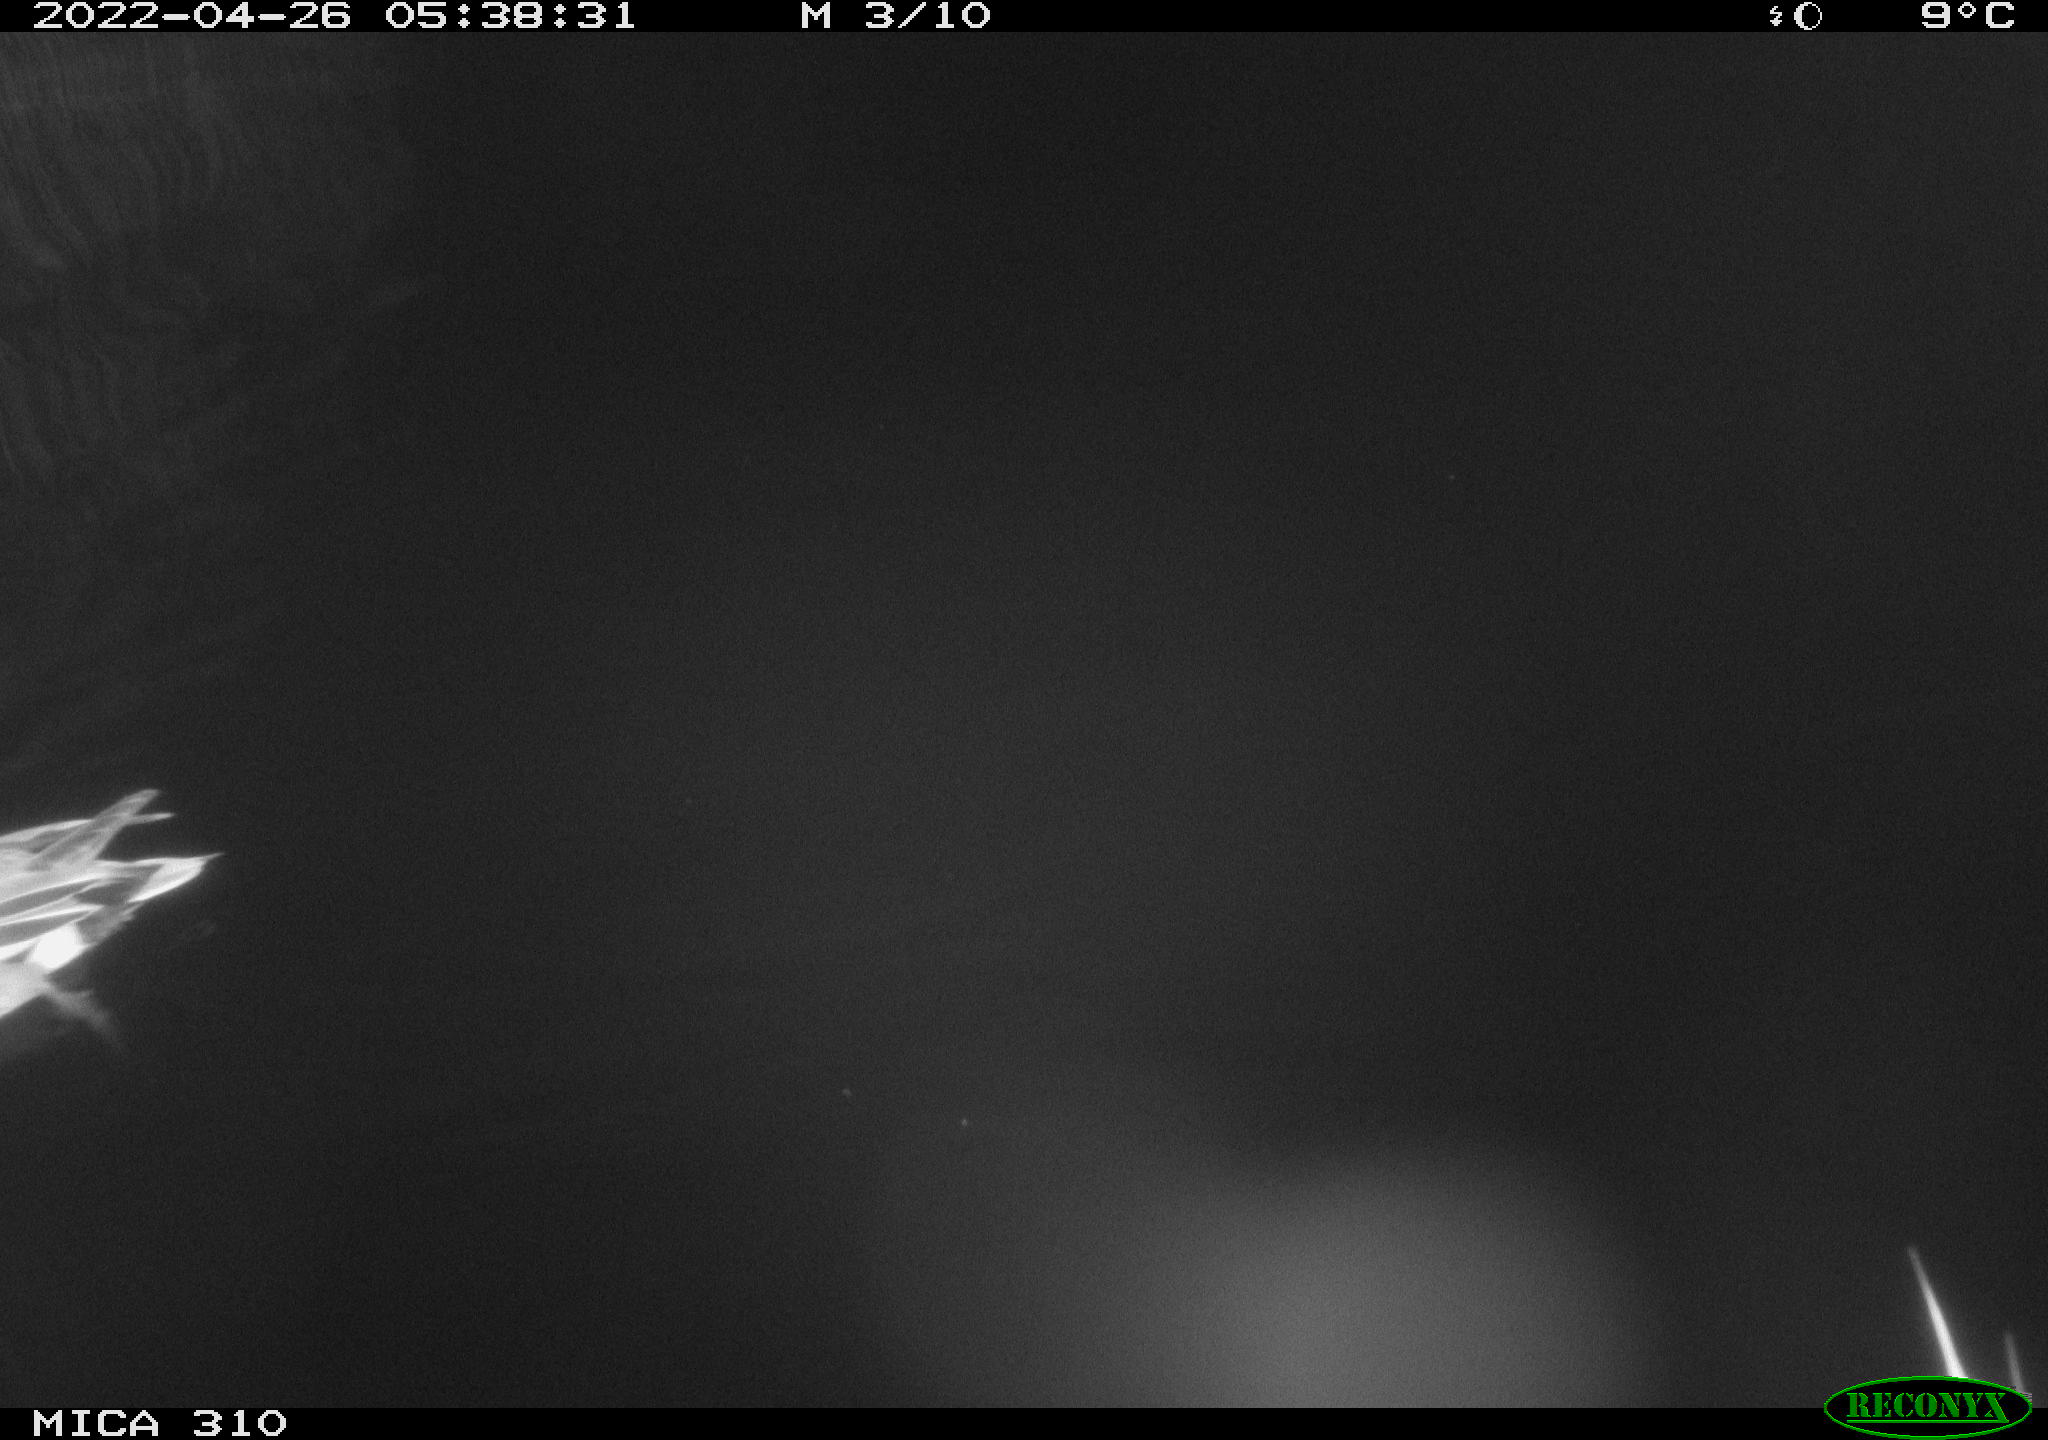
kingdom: Animalia
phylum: Chordata
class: Aves
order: Anseriformes
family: Anatidae
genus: Mareca
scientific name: Mareca strepera
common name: Gadwall
